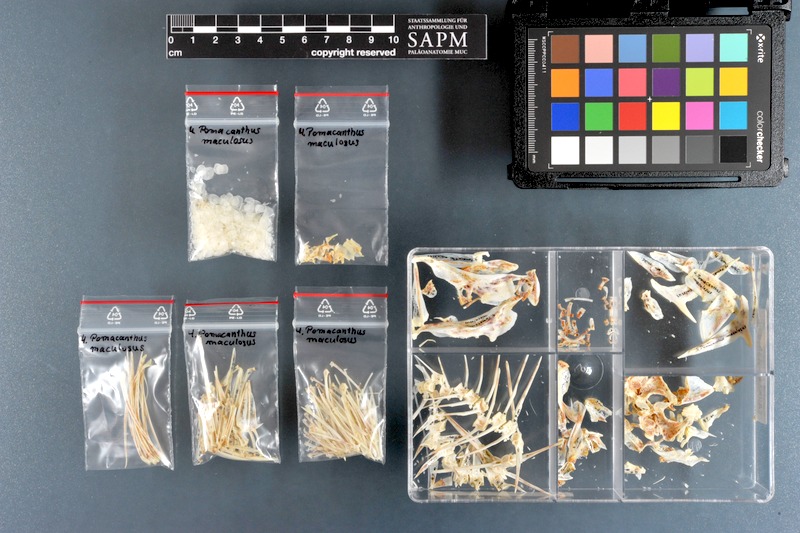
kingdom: Animalia
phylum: Chordata
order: Perciformes
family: Pomacanthidae
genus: Pomacanthus
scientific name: Pomacanthus maculosus
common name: Yellowbar angelfish
